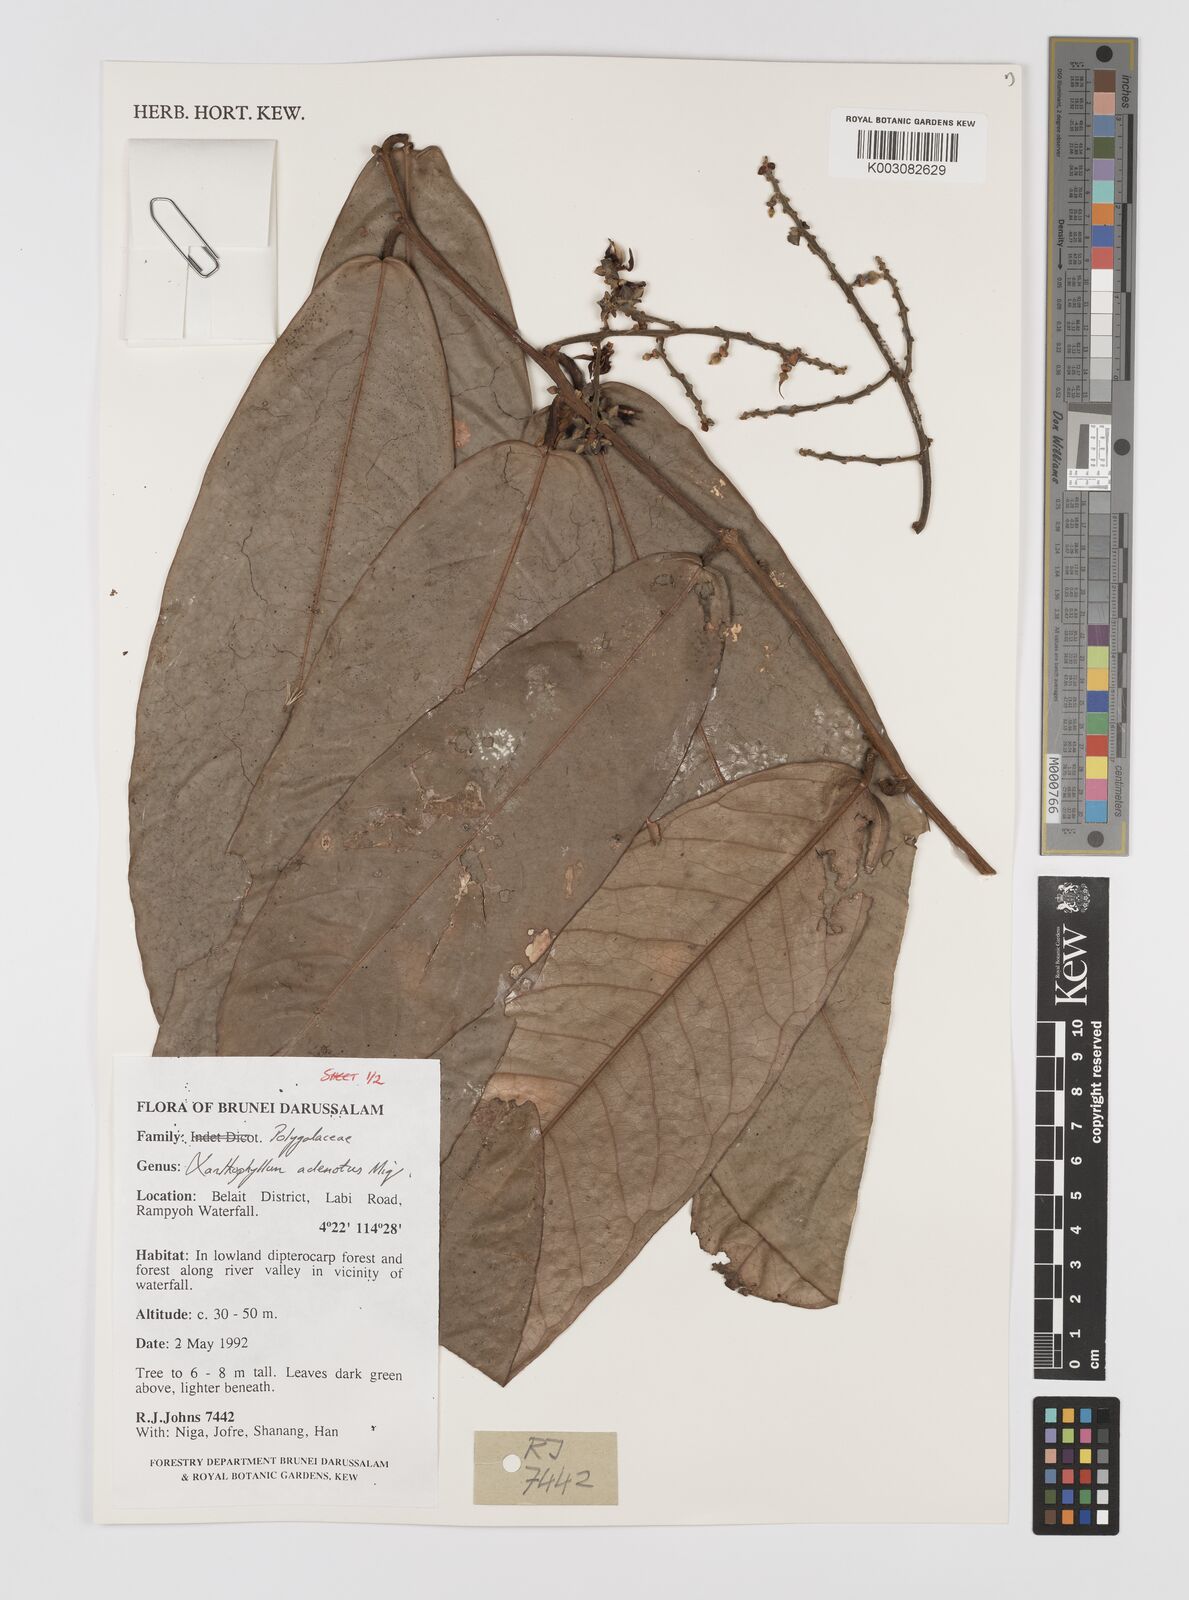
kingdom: Plantae
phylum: Tracheophyta
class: Magnoliopsida
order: Fabales
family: Polygalaceae
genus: Xanthophyllum
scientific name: Xanthophyllum adenotus
